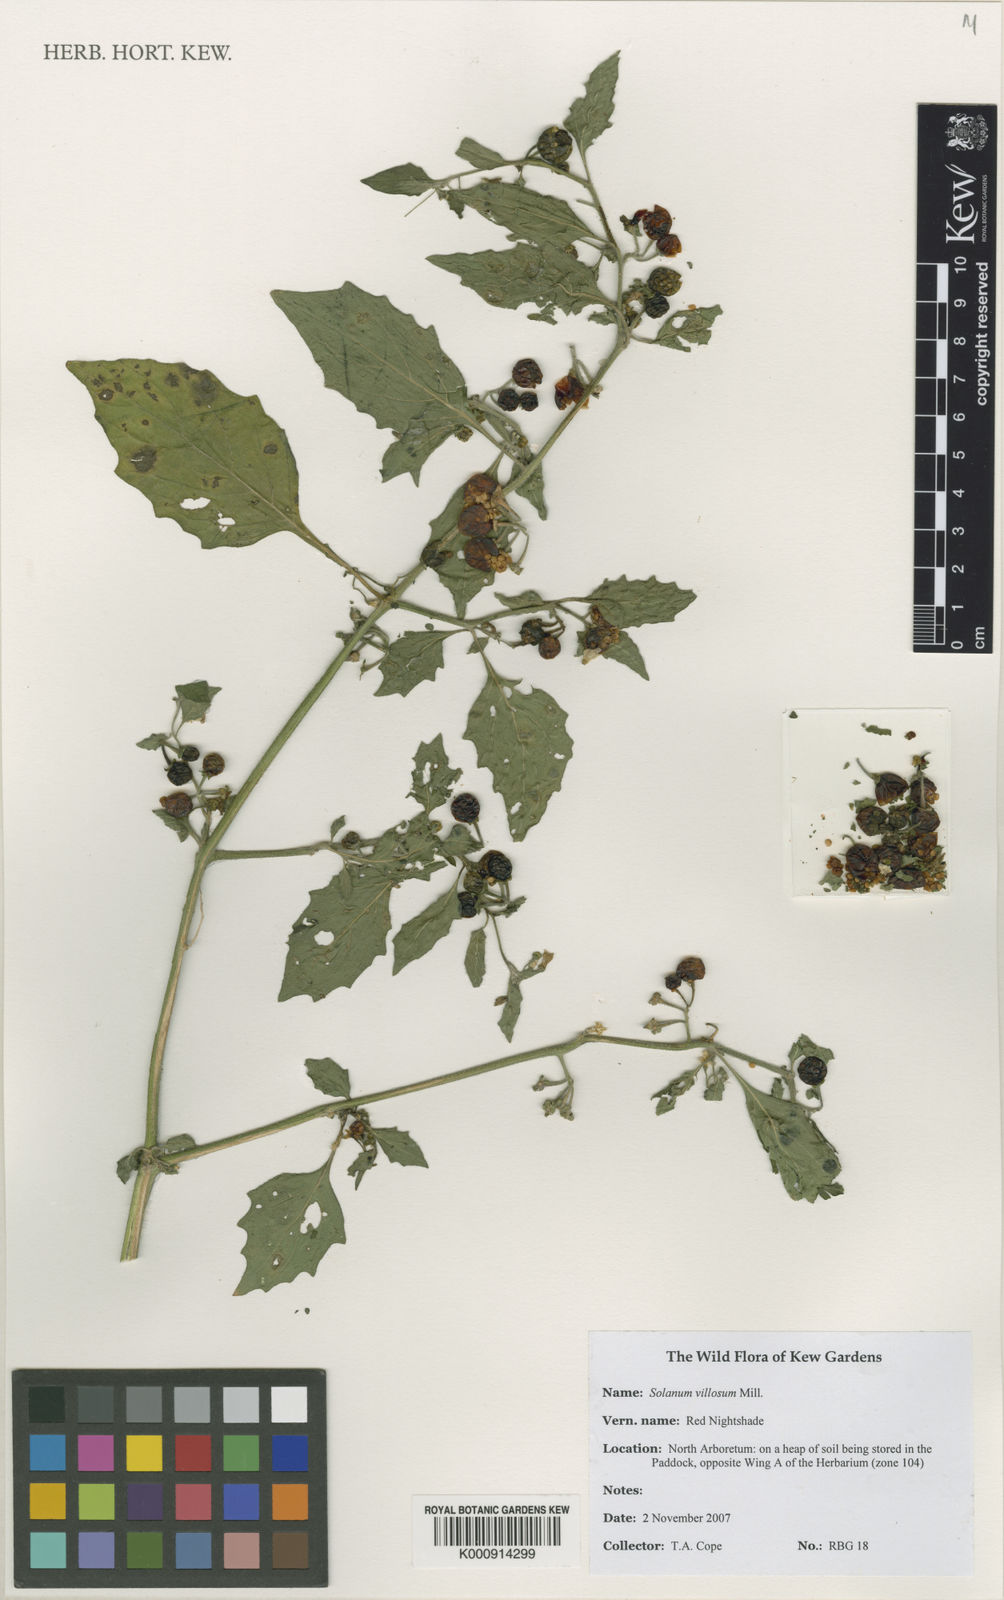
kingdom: Plantae
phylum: Tracheophyta
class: Magnoliopsida
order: Solanales
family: Solanaceae
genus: Solanum
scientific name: Solanum villosum
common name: Red nightshade
